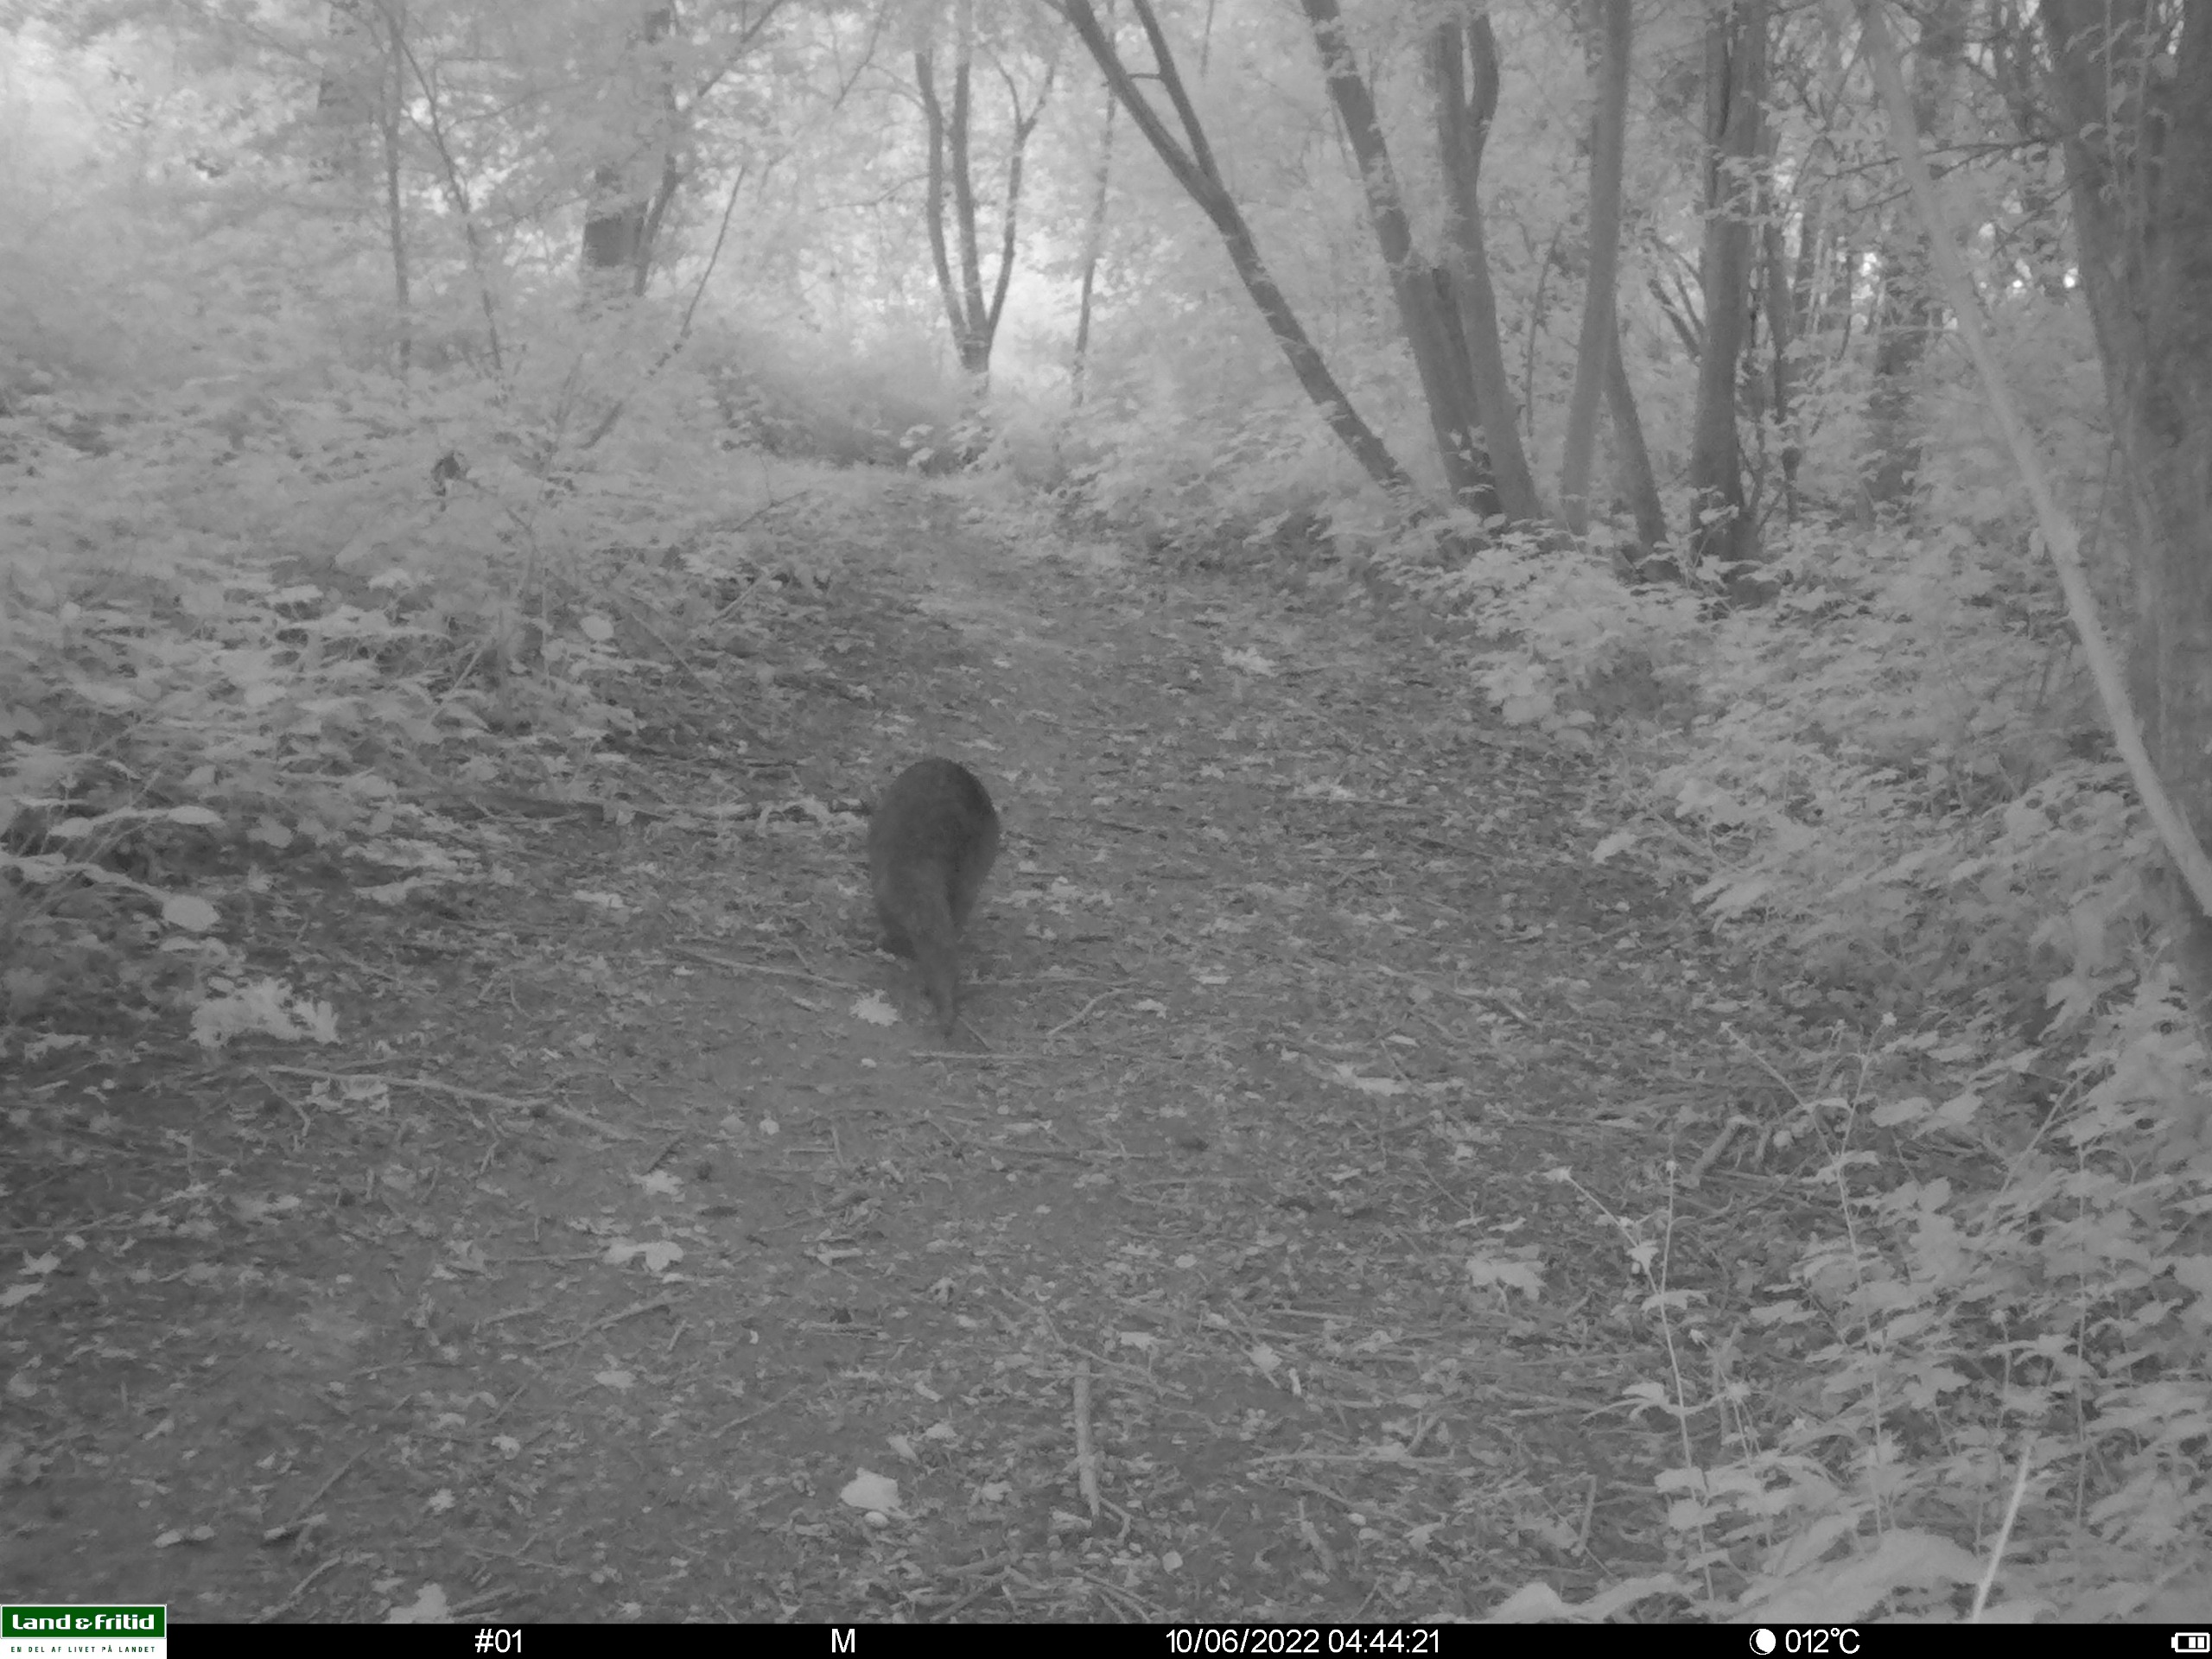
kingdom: Animalia
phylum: Chordata
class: Mammalia
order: Carnivora
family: Mustelidae
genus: Lutra
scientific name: Lutra lutra
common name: Odder
